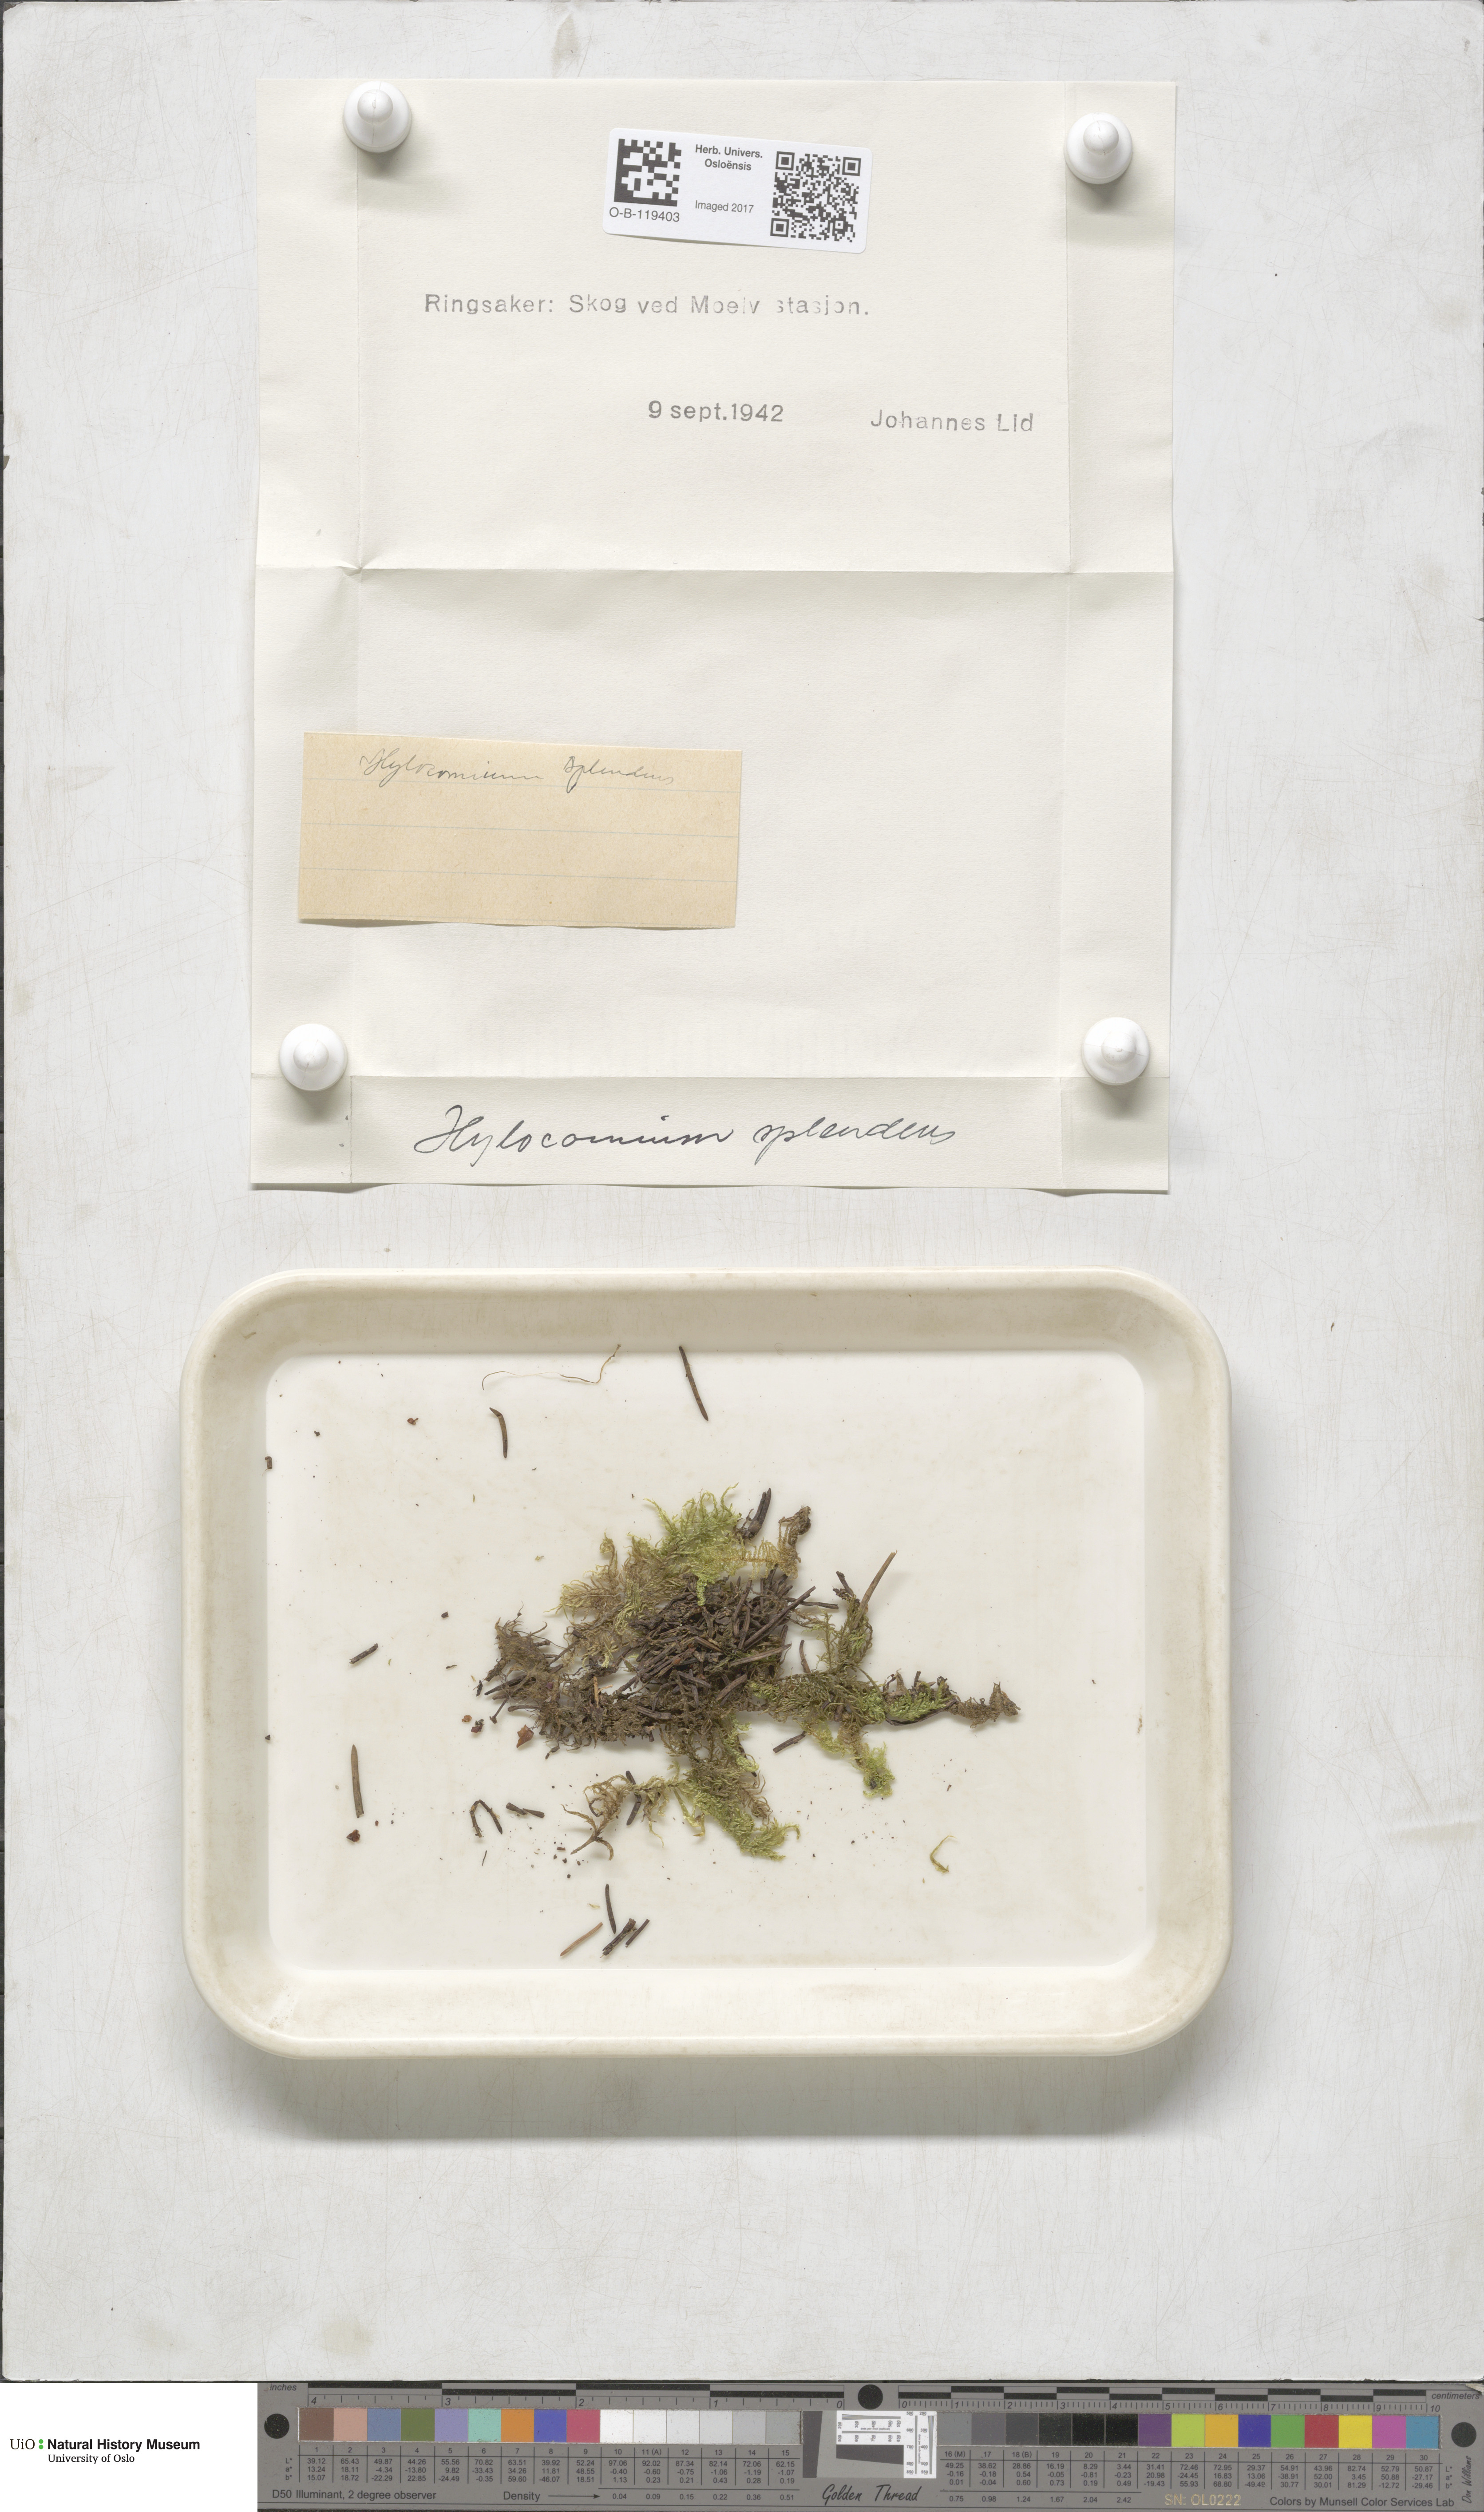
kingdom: Plantae
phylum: Bryophyta
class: Bryopsida
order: Hypnales
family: Hylocomiaceae
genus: Hylocomium
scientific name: Hylocomium splendens
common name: Stairstep moss
